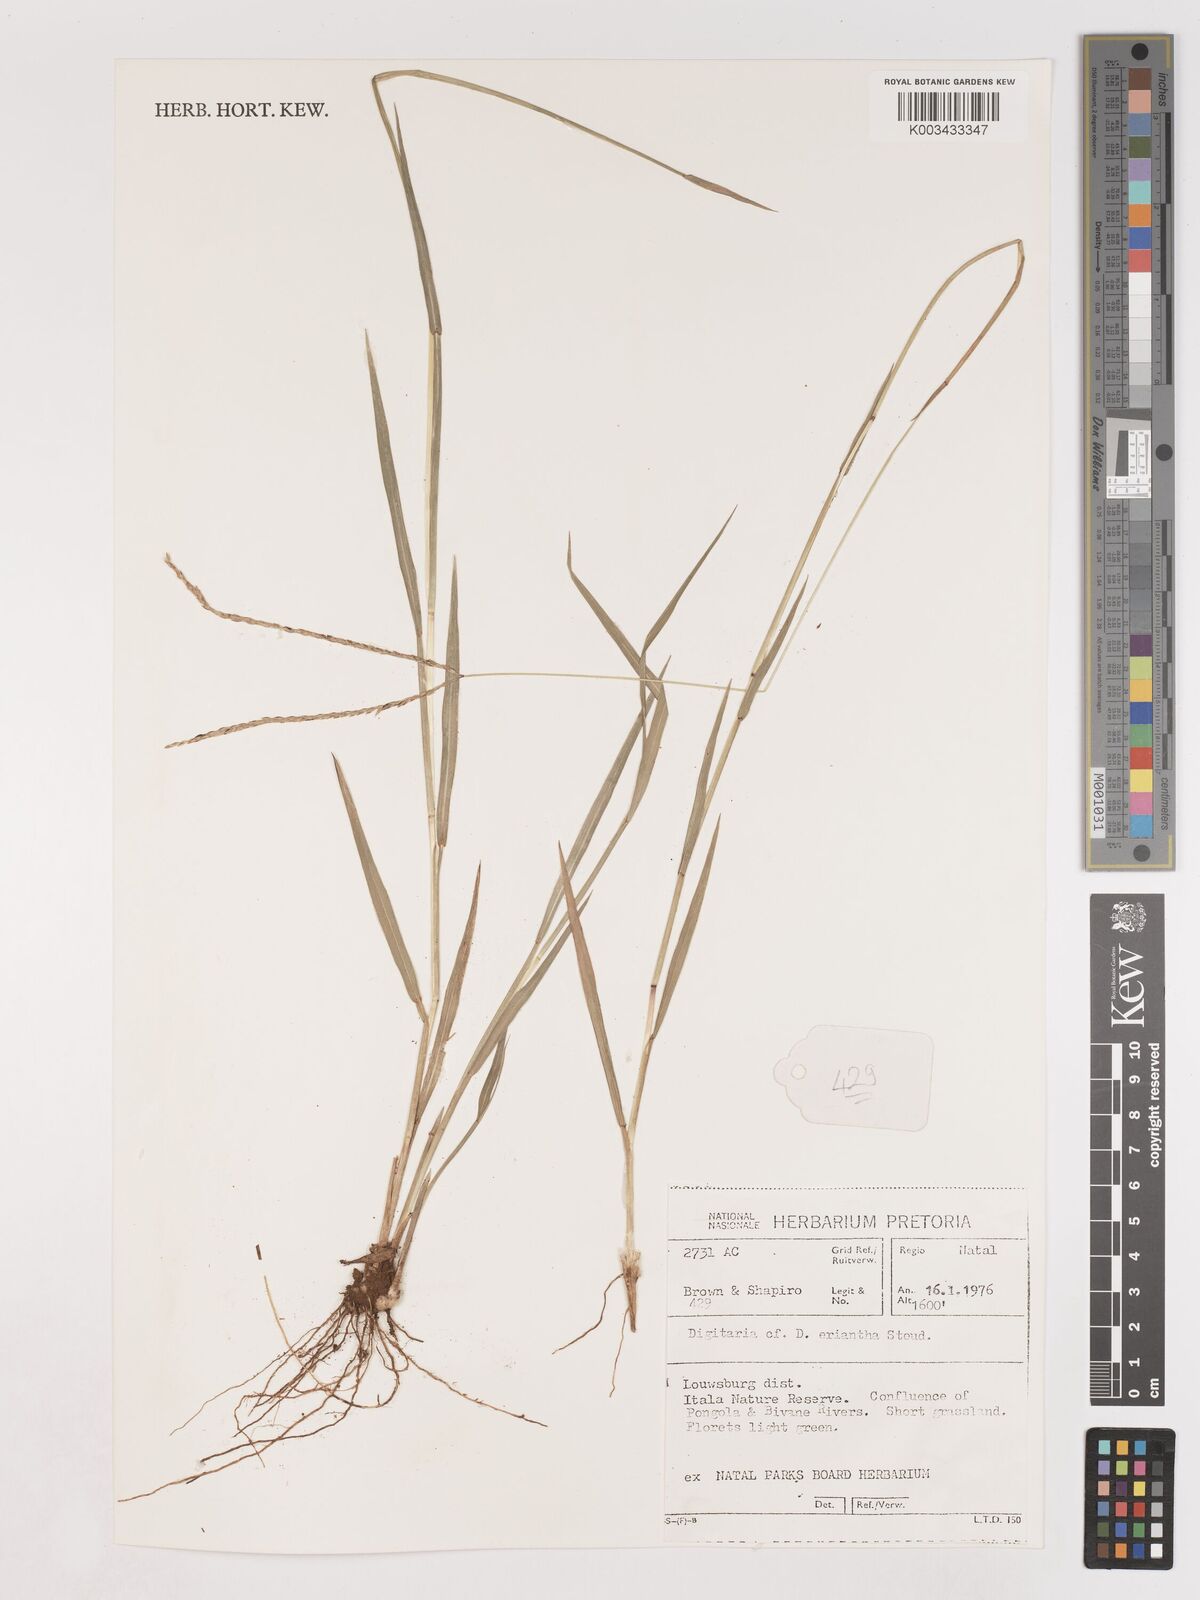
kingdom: Plantae
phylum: Tracheophyta
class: Liliopsida
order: Poales
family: Poaceae
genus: Digitaria
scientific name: Digitaria eriantha
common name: Digitgrass
